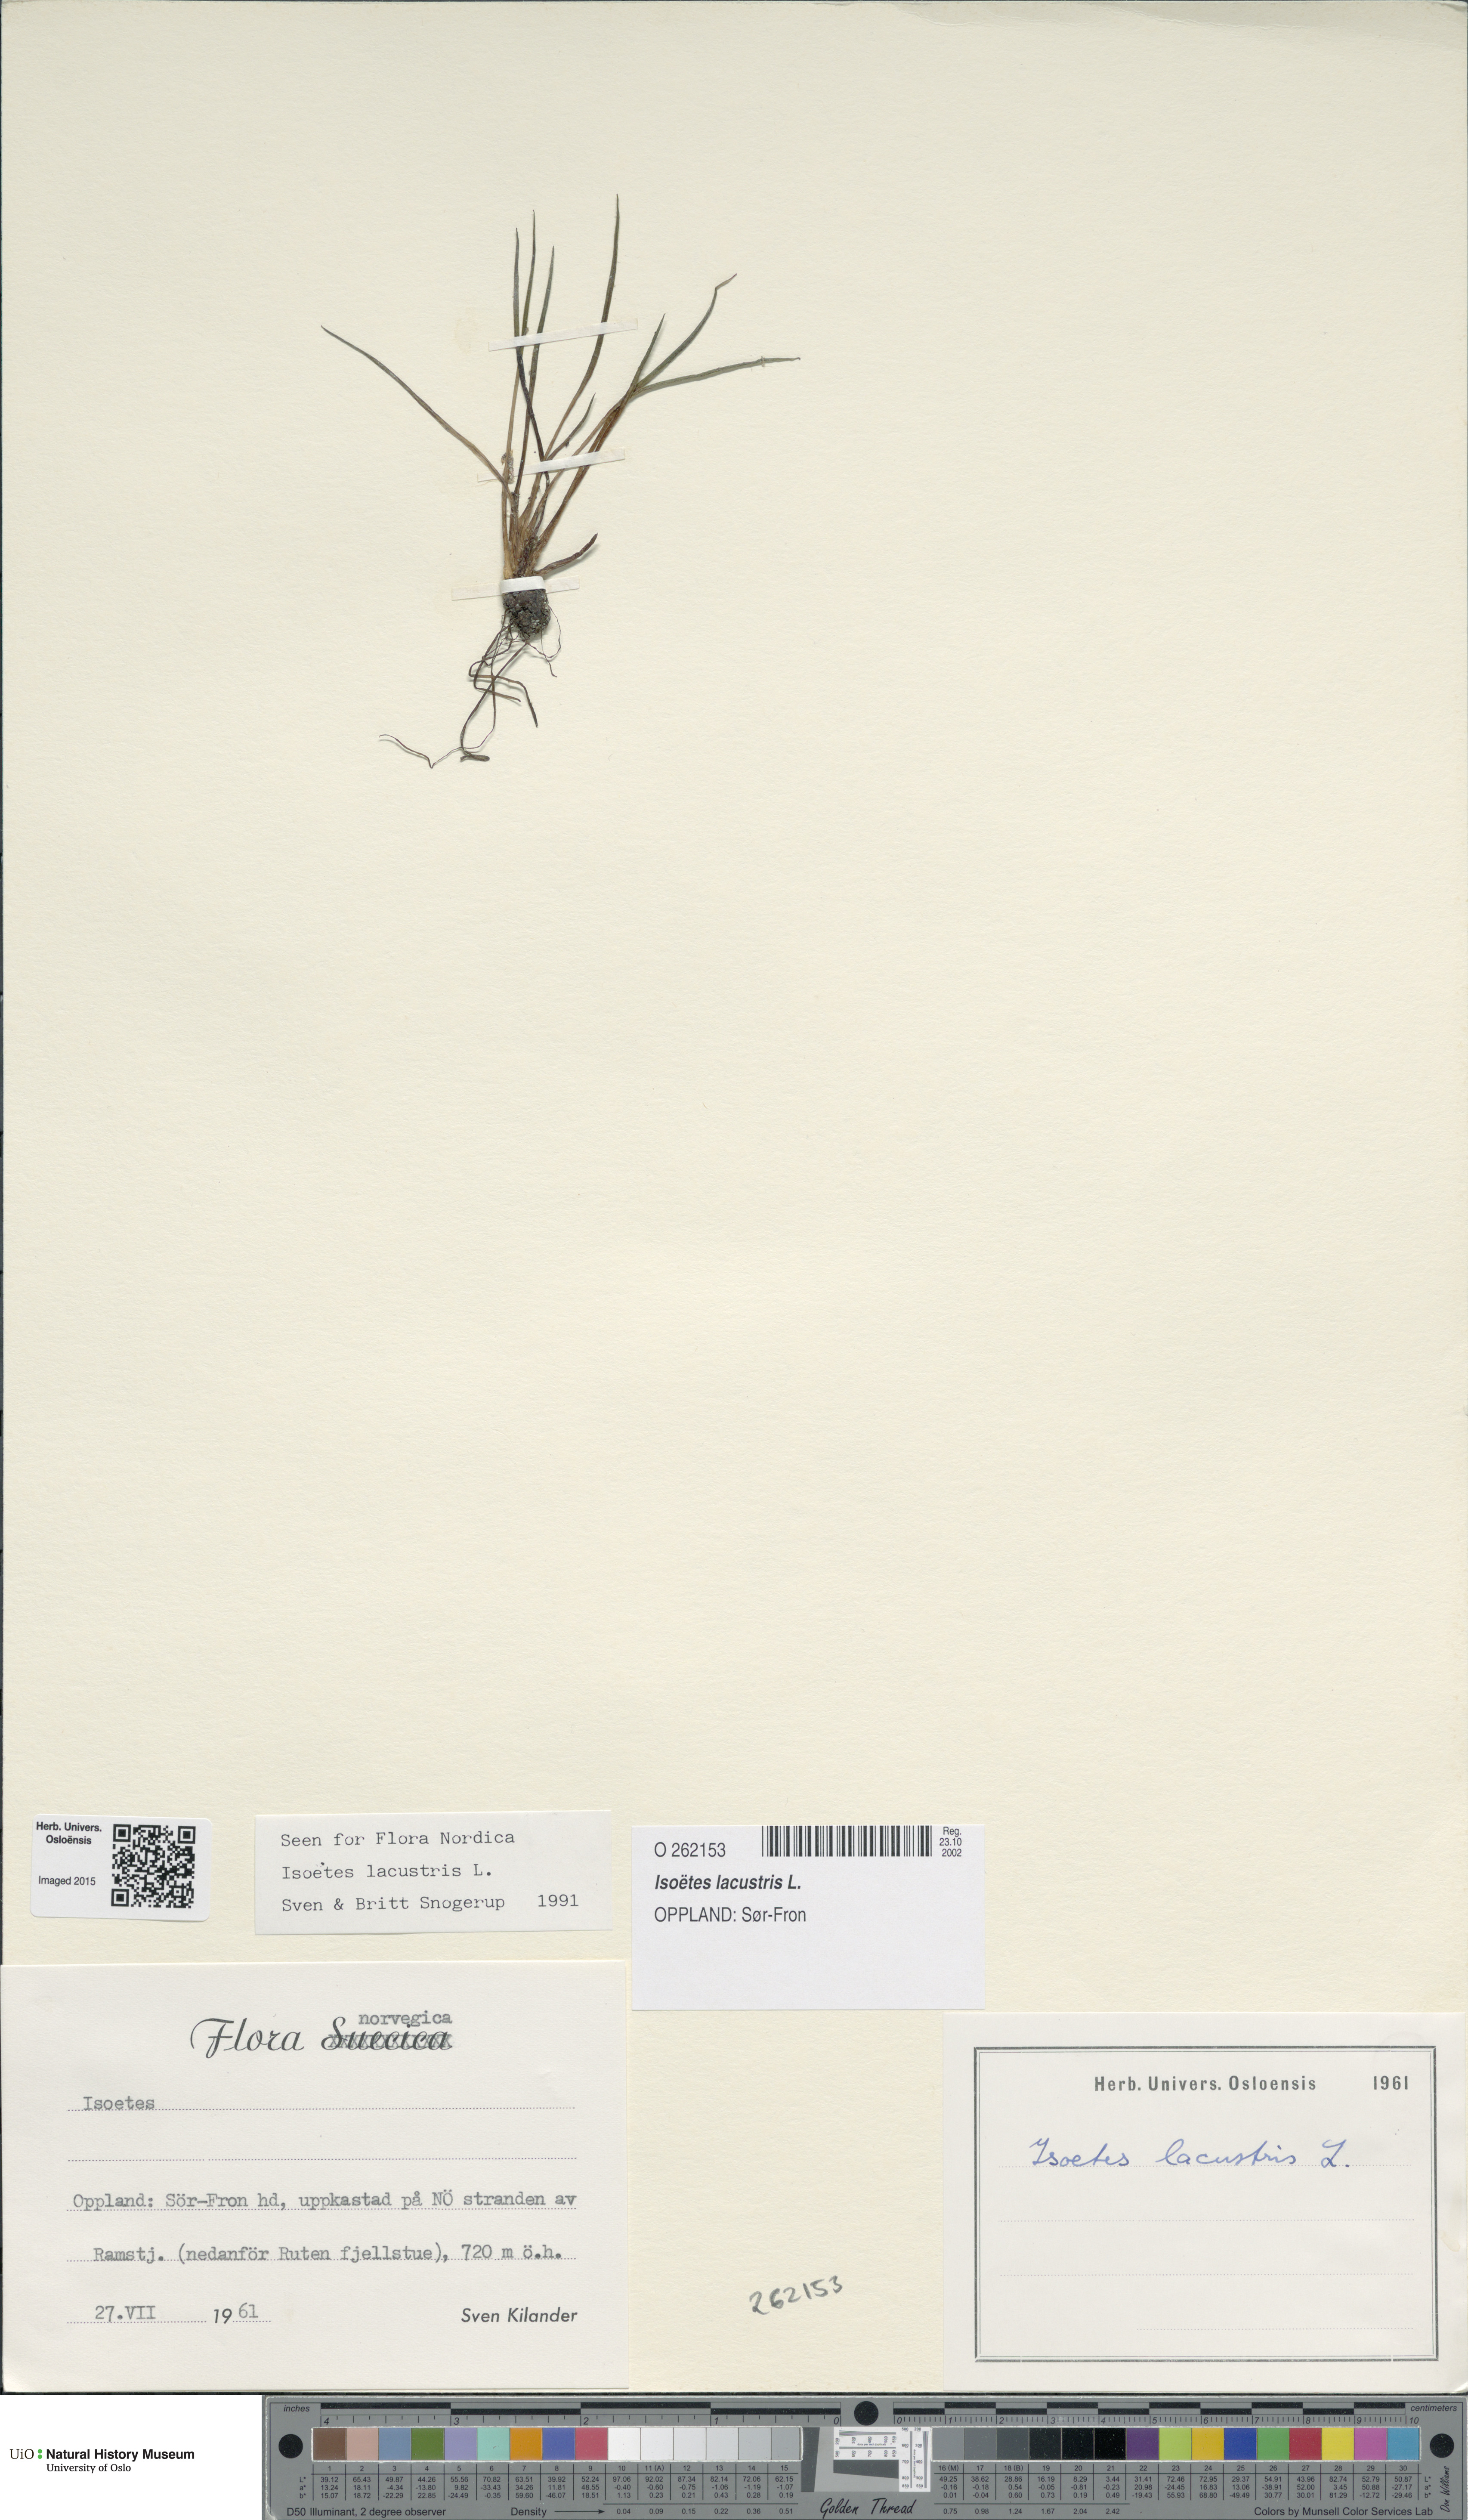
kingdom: Plantae
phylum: Tracheophyta
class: Lycopodiopsida
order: Isoetales
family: Isoetaceae
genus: Isoetes
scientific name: Isoetes lacustris
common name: Common quillwort
